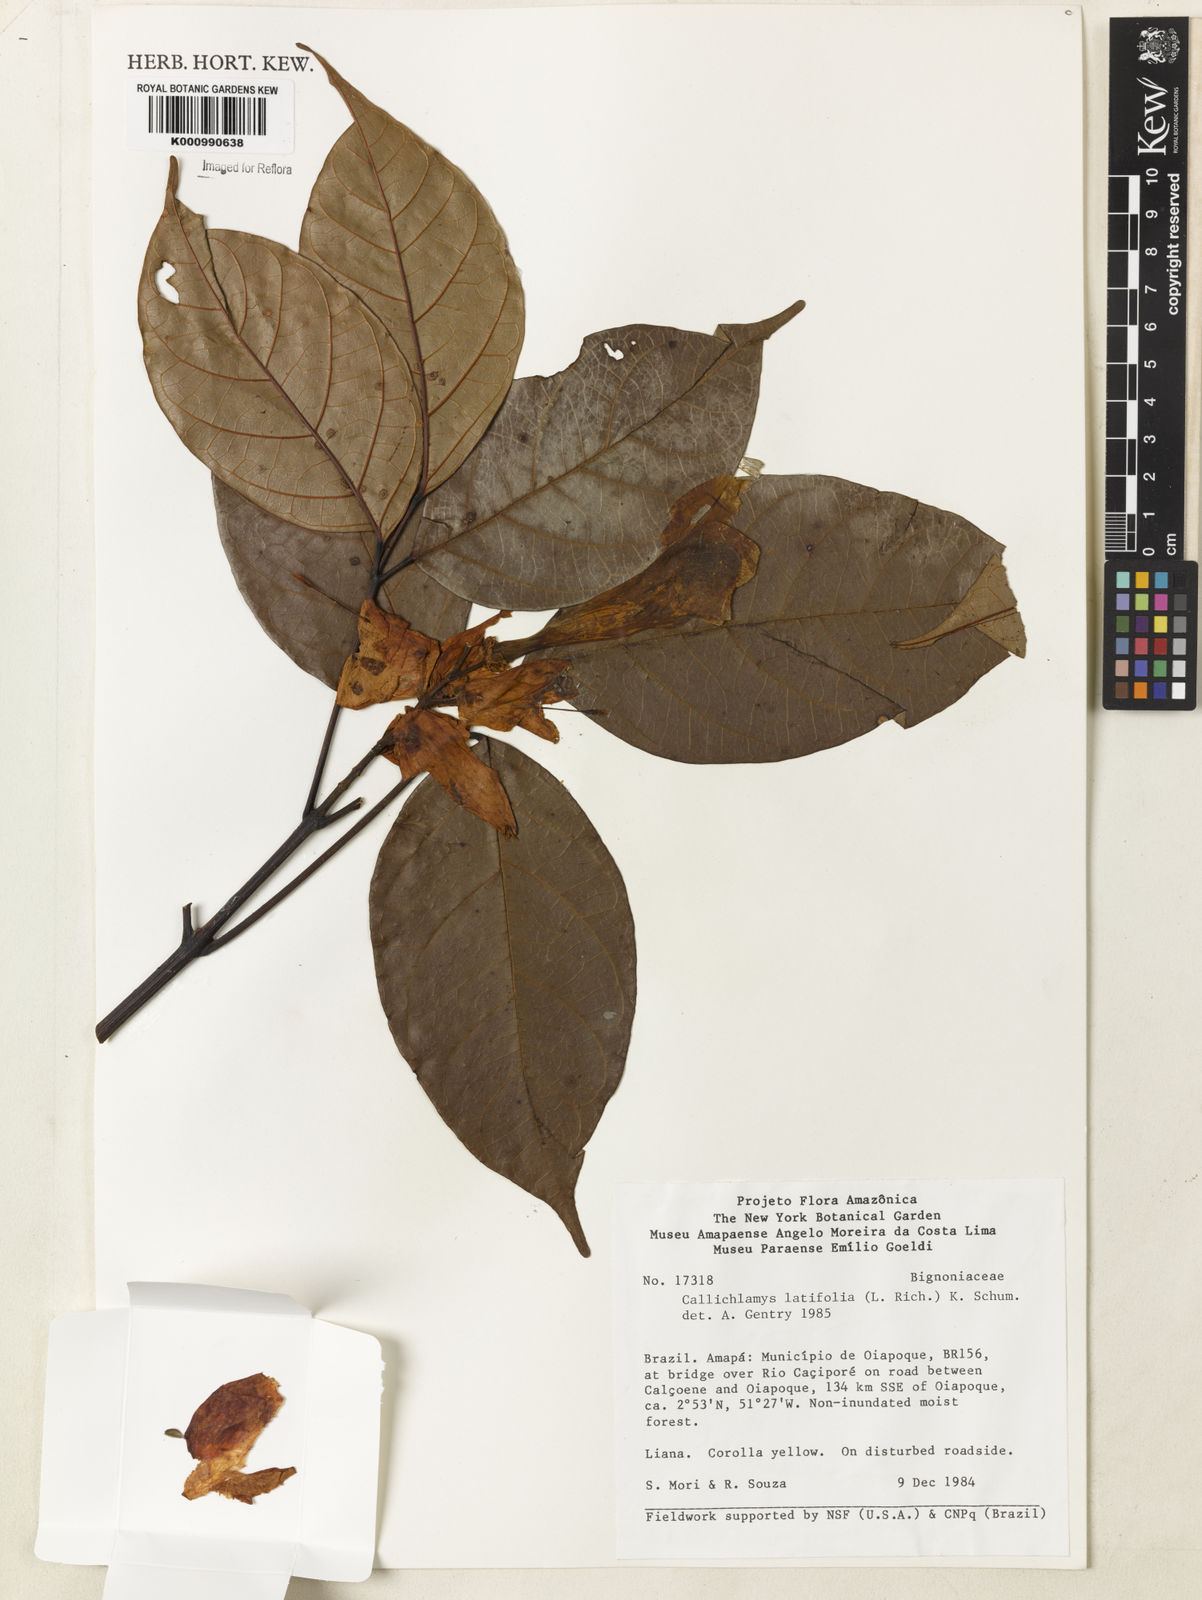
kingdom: Plantae
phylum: Tracheophyta
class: Magnoliopsida
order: Lamiales
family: Bignoniaceae
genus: Callichlamys
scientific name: Callichlamys latifolia
